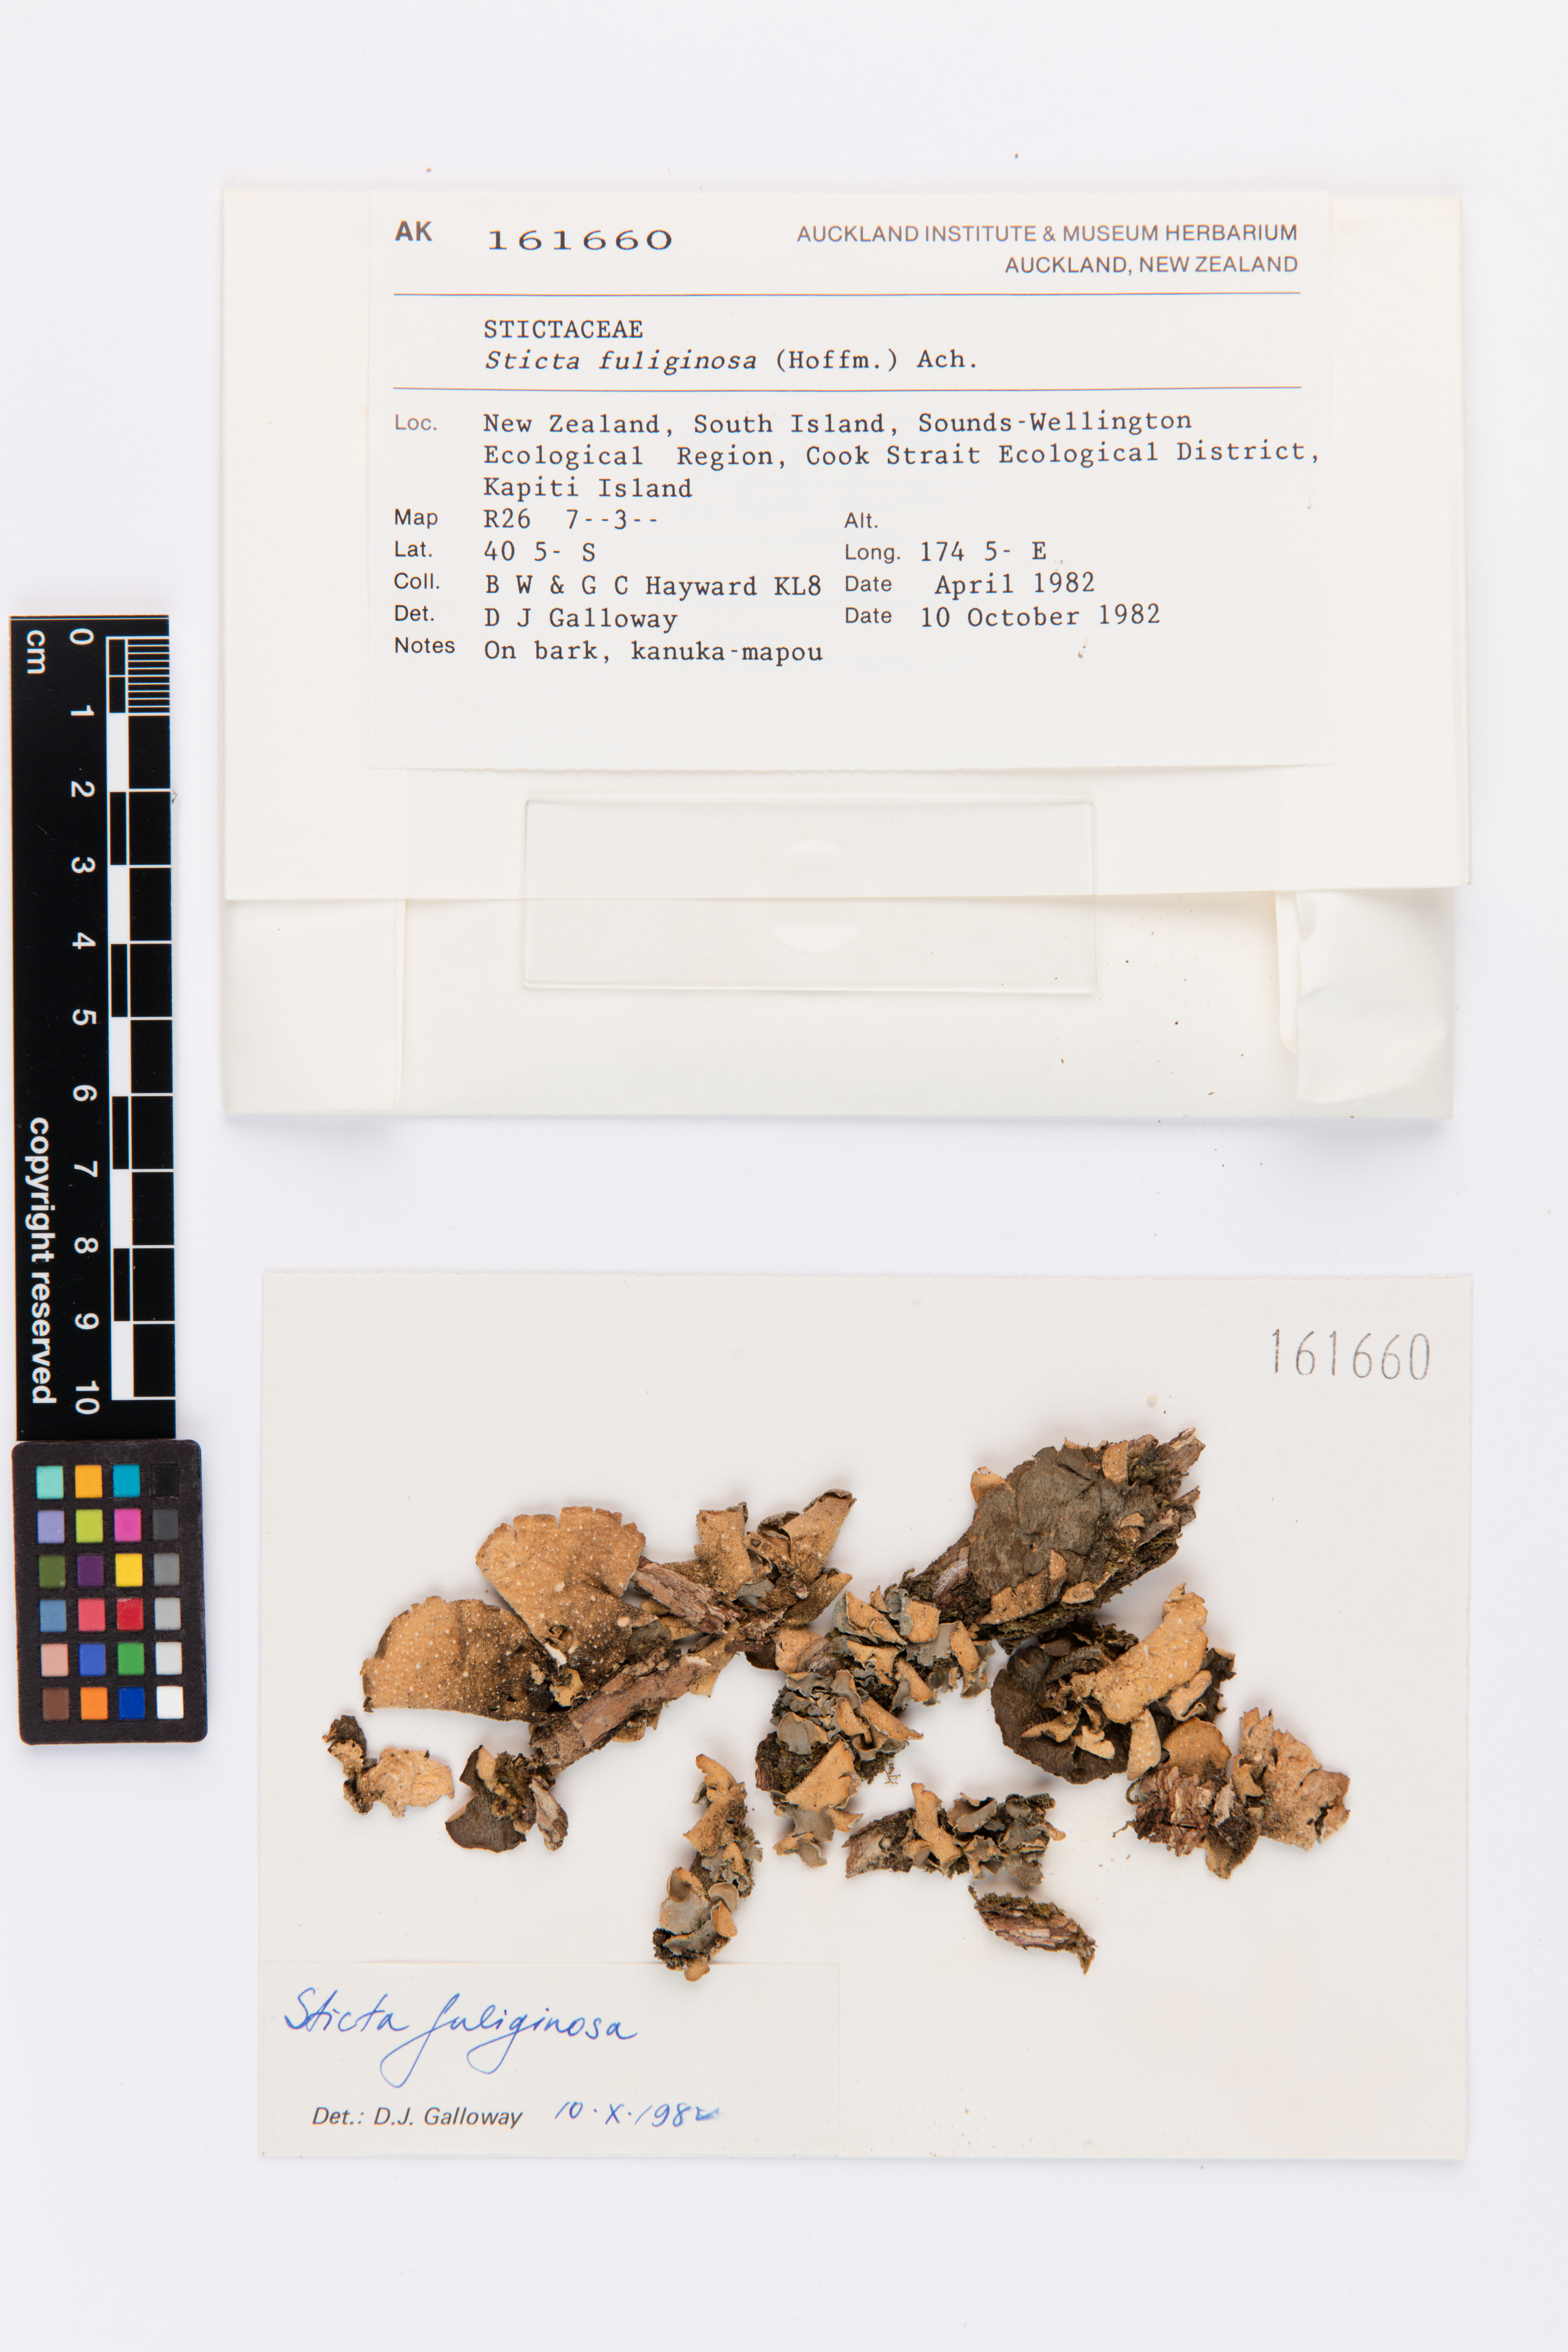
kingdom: Fungi
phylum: Ascomycota
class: Lecanoromycetes
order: Peltigerales
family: Lobariaceae
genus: Sticta
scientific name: Sticta fuliginosa
